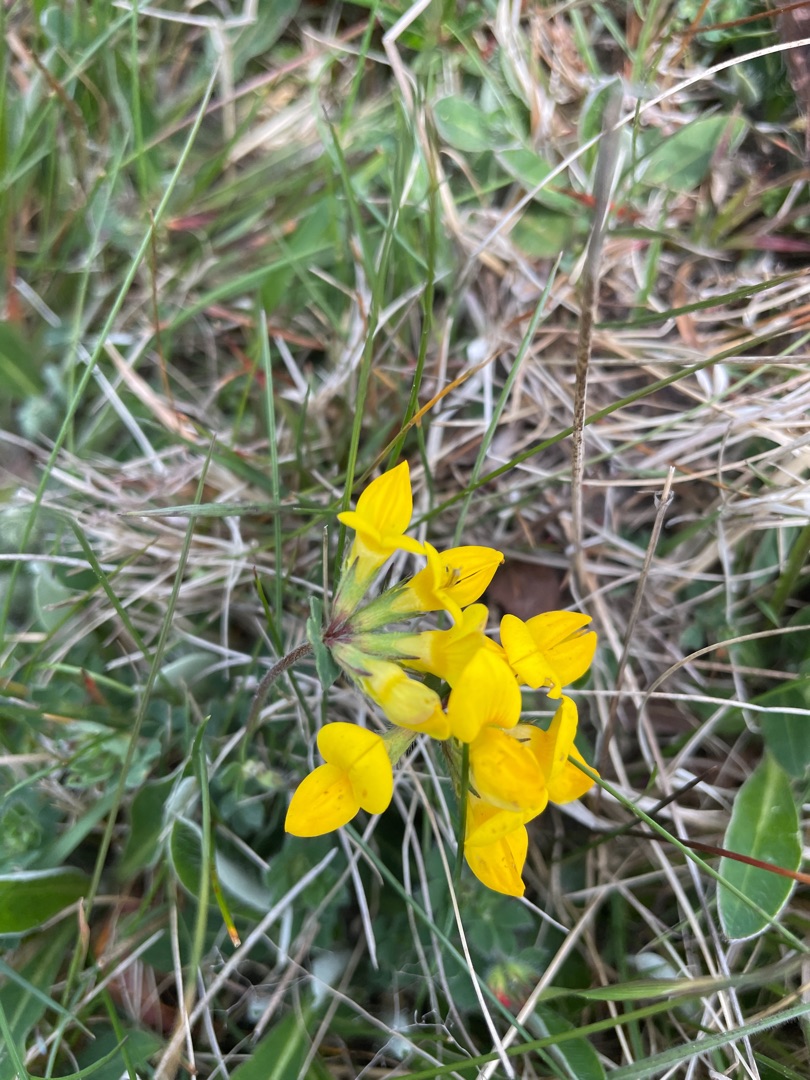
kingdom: Plantae
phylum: Tracheophyta
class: Magnoliopsida
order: Fabales
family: Fabaceae
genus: Lotus
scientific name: Lotus corniculatus
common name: Almindelig kællingetand
